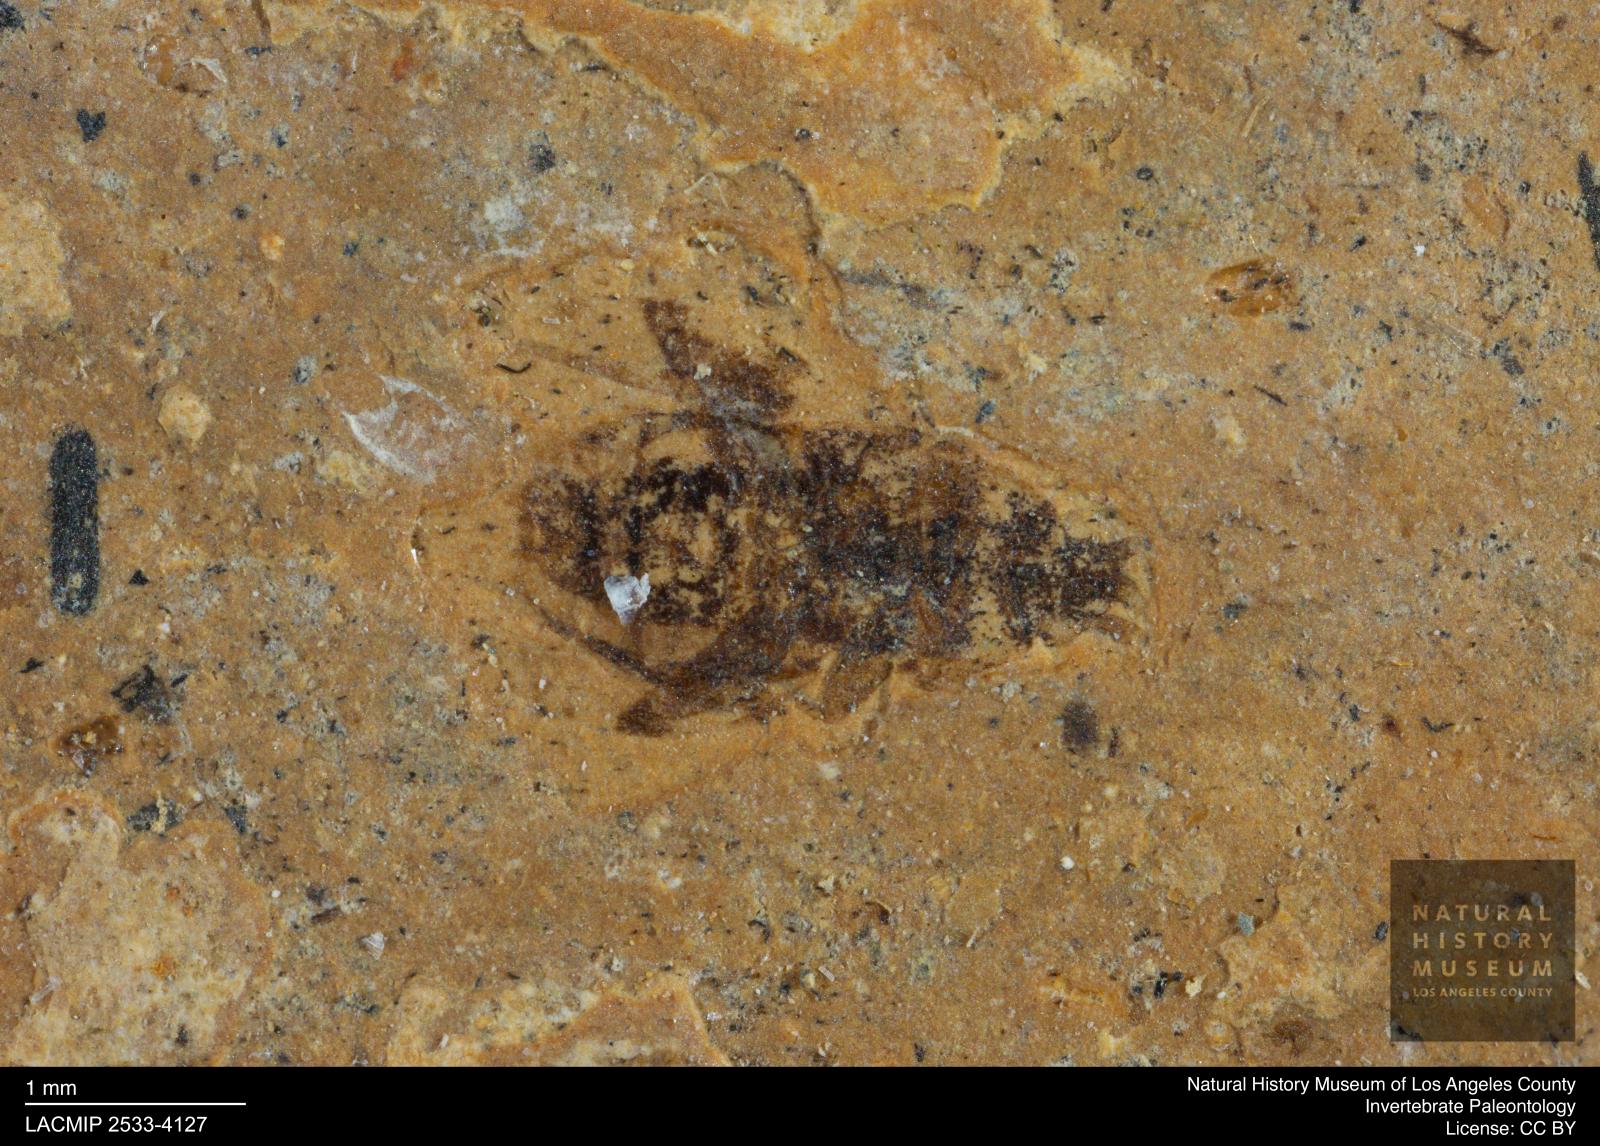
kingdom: Animalia
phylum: Arthropoda
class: Insecta
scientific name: Insecta
